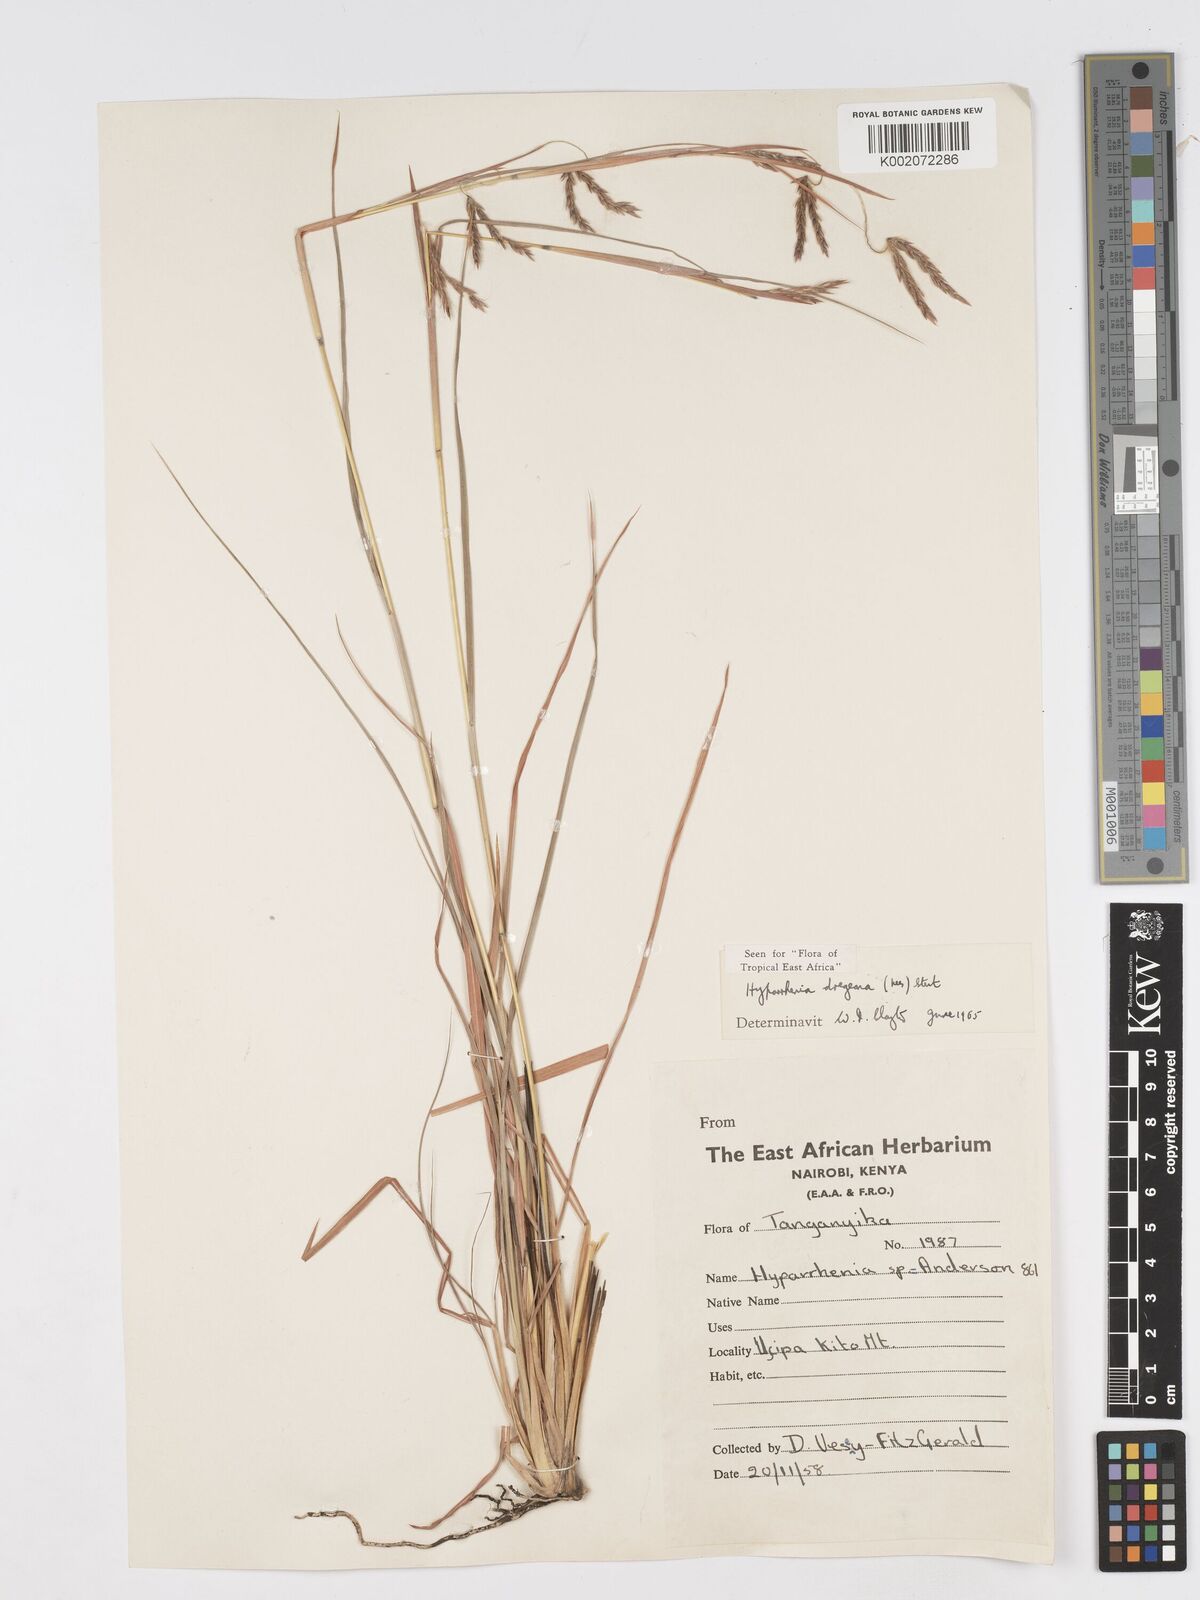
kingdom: Plantae
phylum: Tracheophyta
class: Liliopsida
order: Poales
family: Poaceae
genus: Hyparrhenia
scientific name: Hyparrhenia dregeana
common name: Silky thatching grass
